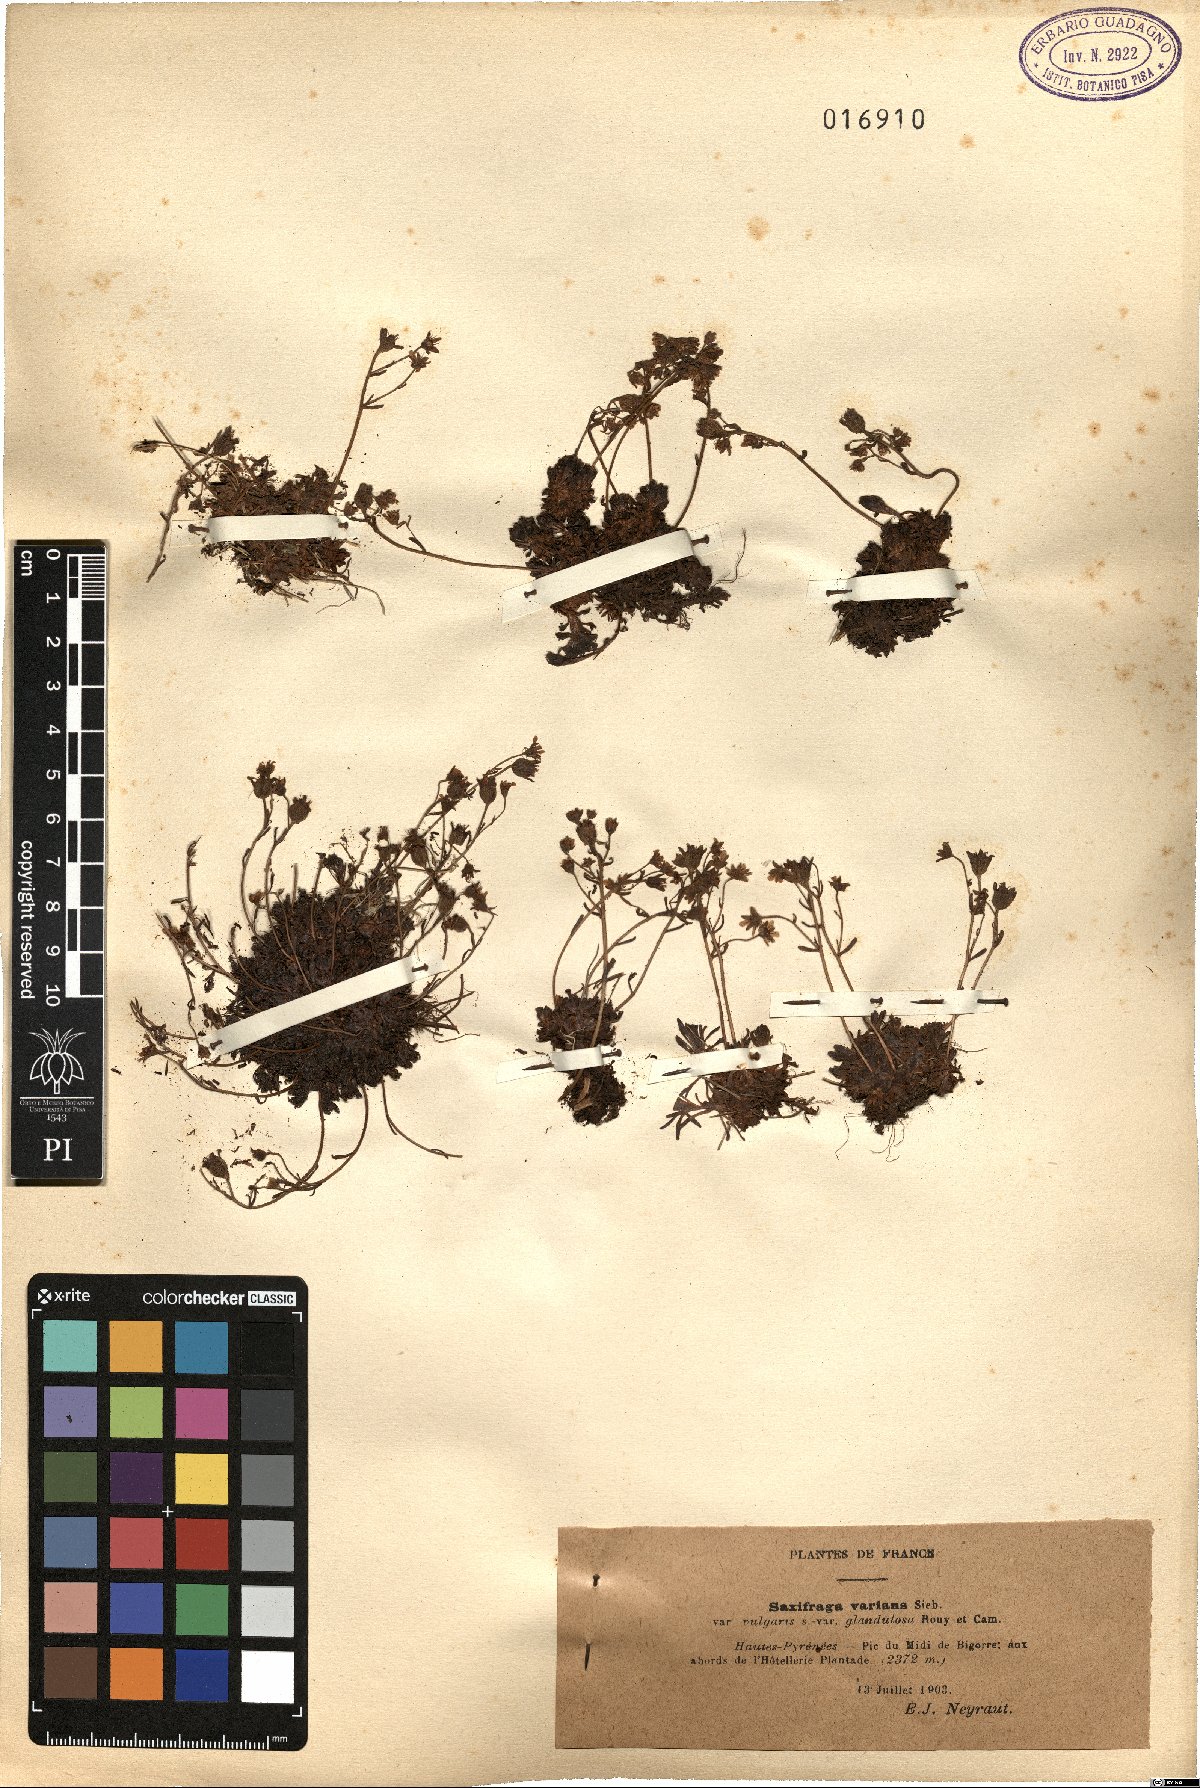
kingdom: Plantae
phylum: Tracheophyta
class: Magnoliopsida
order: Saxifragales
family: Saxifragaceae
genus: Saxifraga
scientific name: Saxifraga moschata
